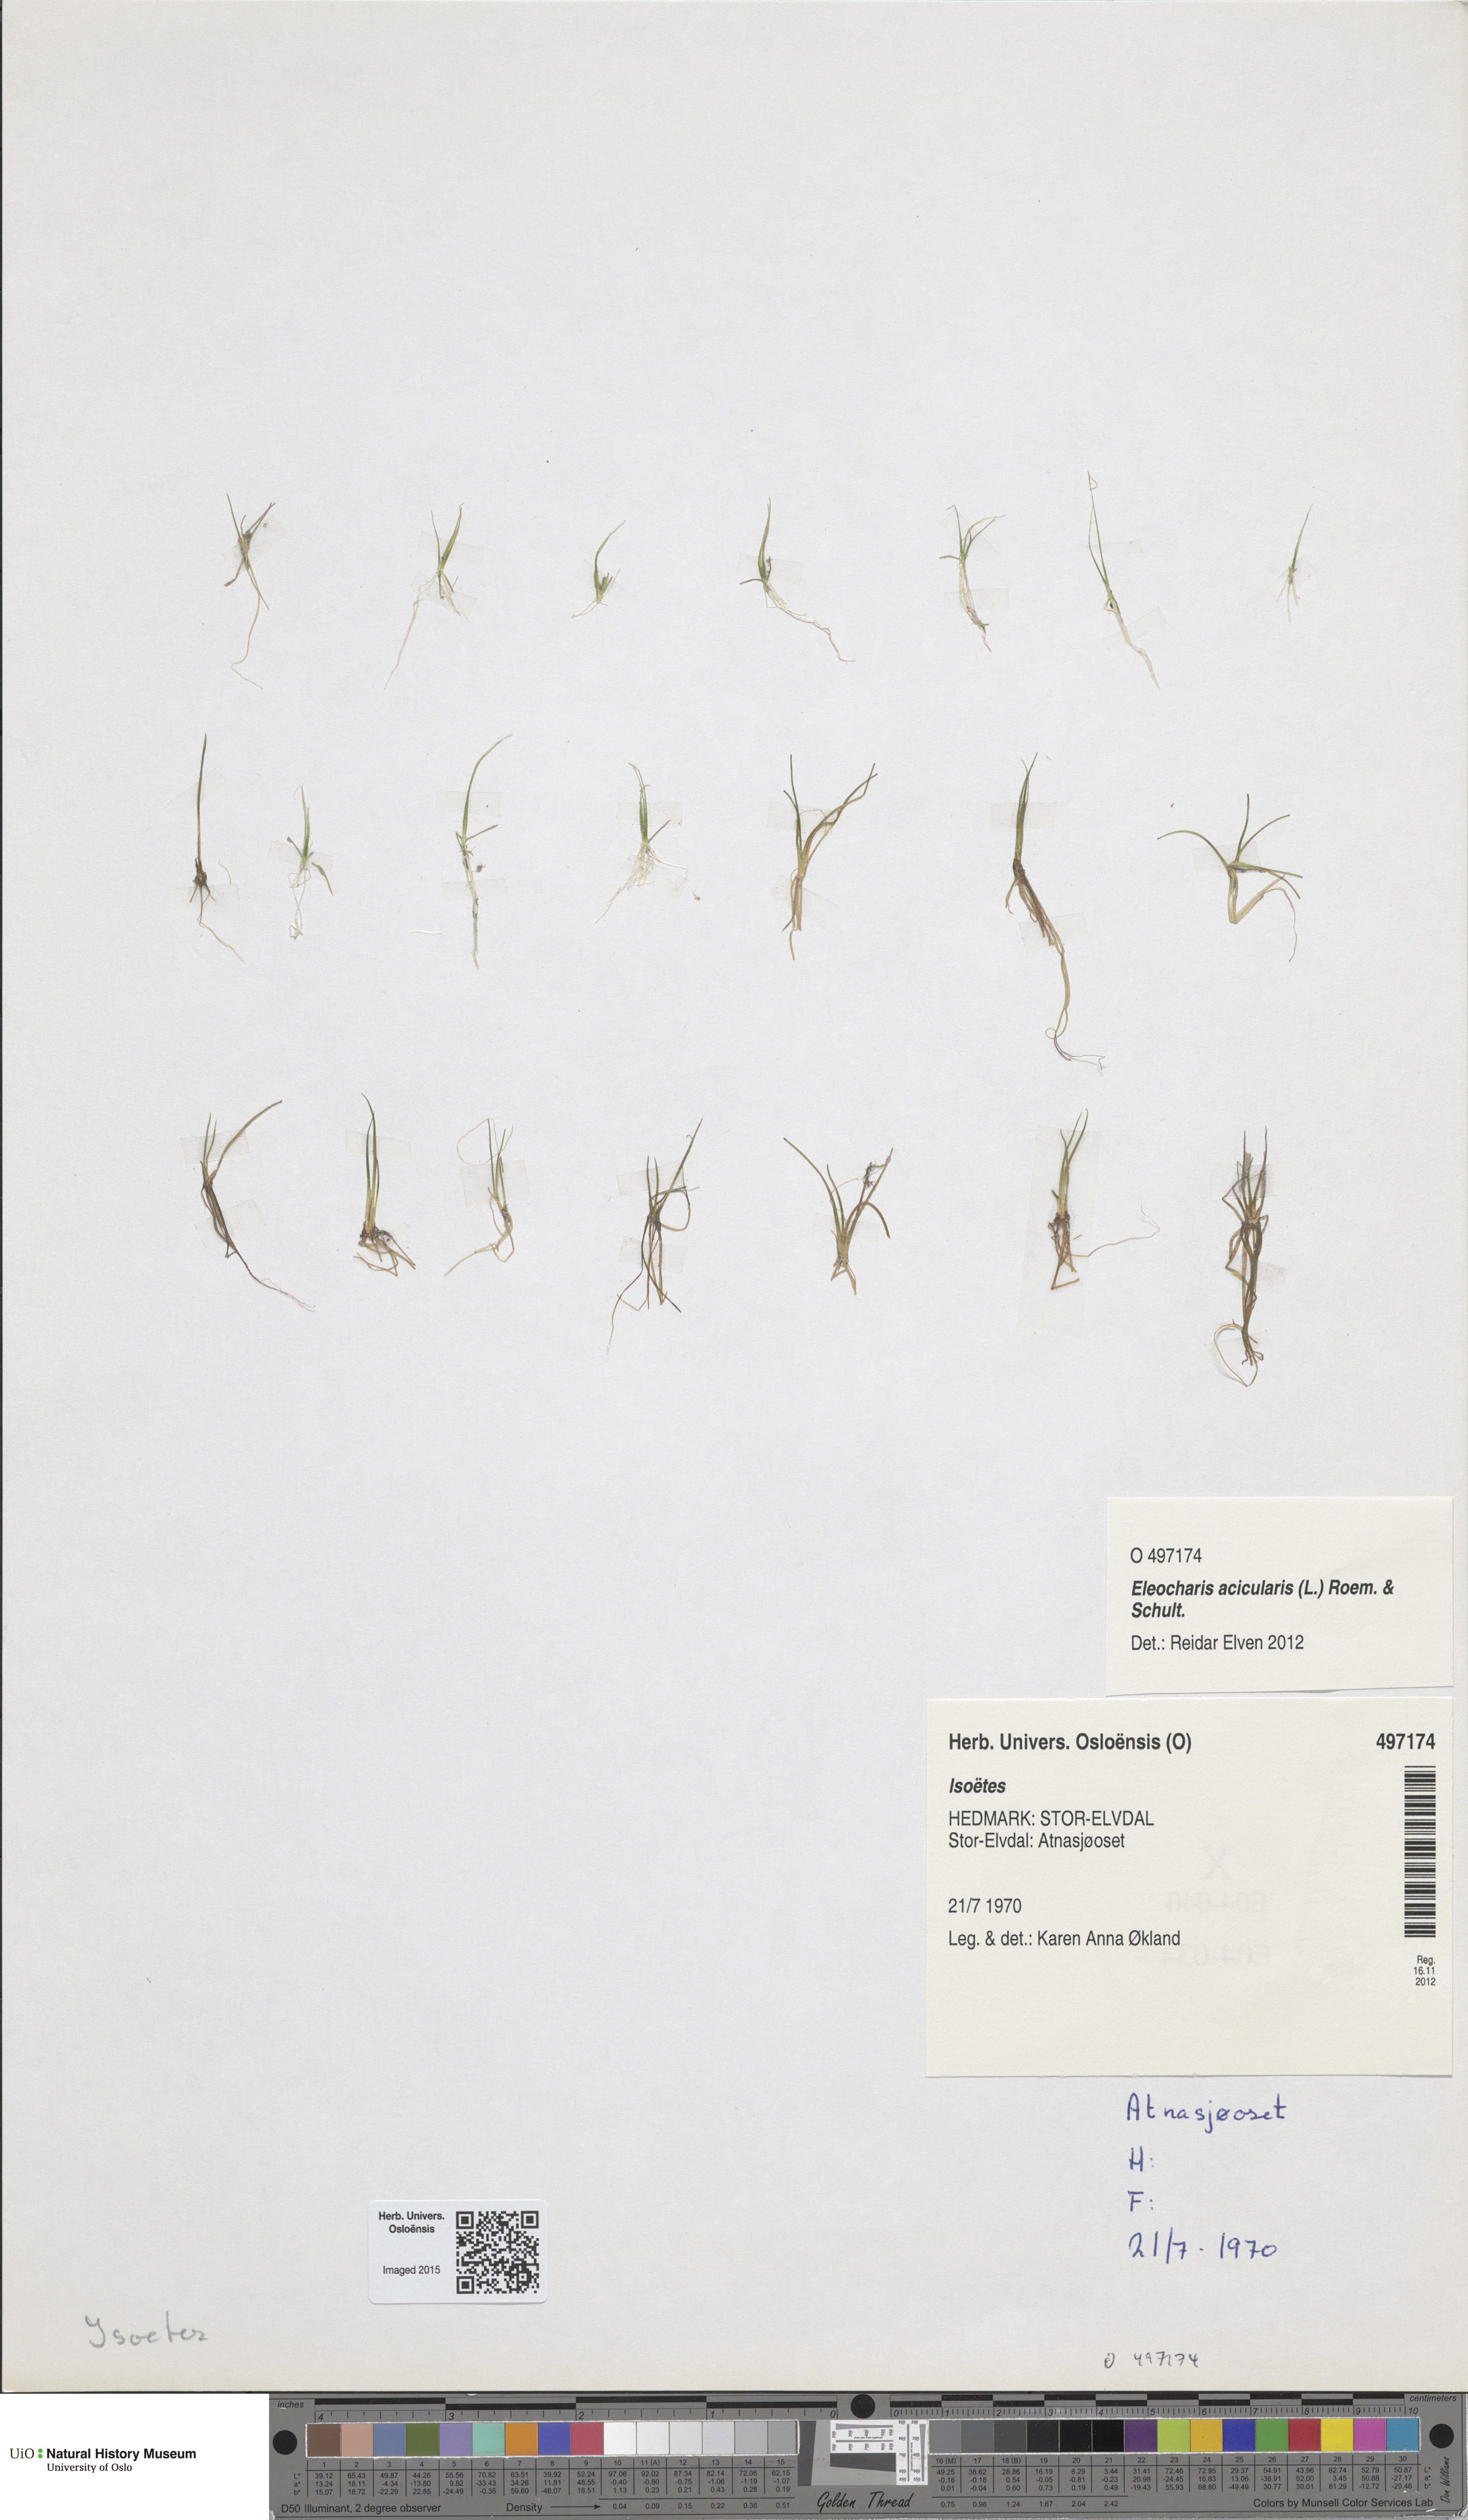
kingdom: Plantae
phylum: Tracheophyta
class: Lycopodiopsida
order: Isoetales
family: Isoetaceae
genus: Isoetes
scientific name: Isoetes
